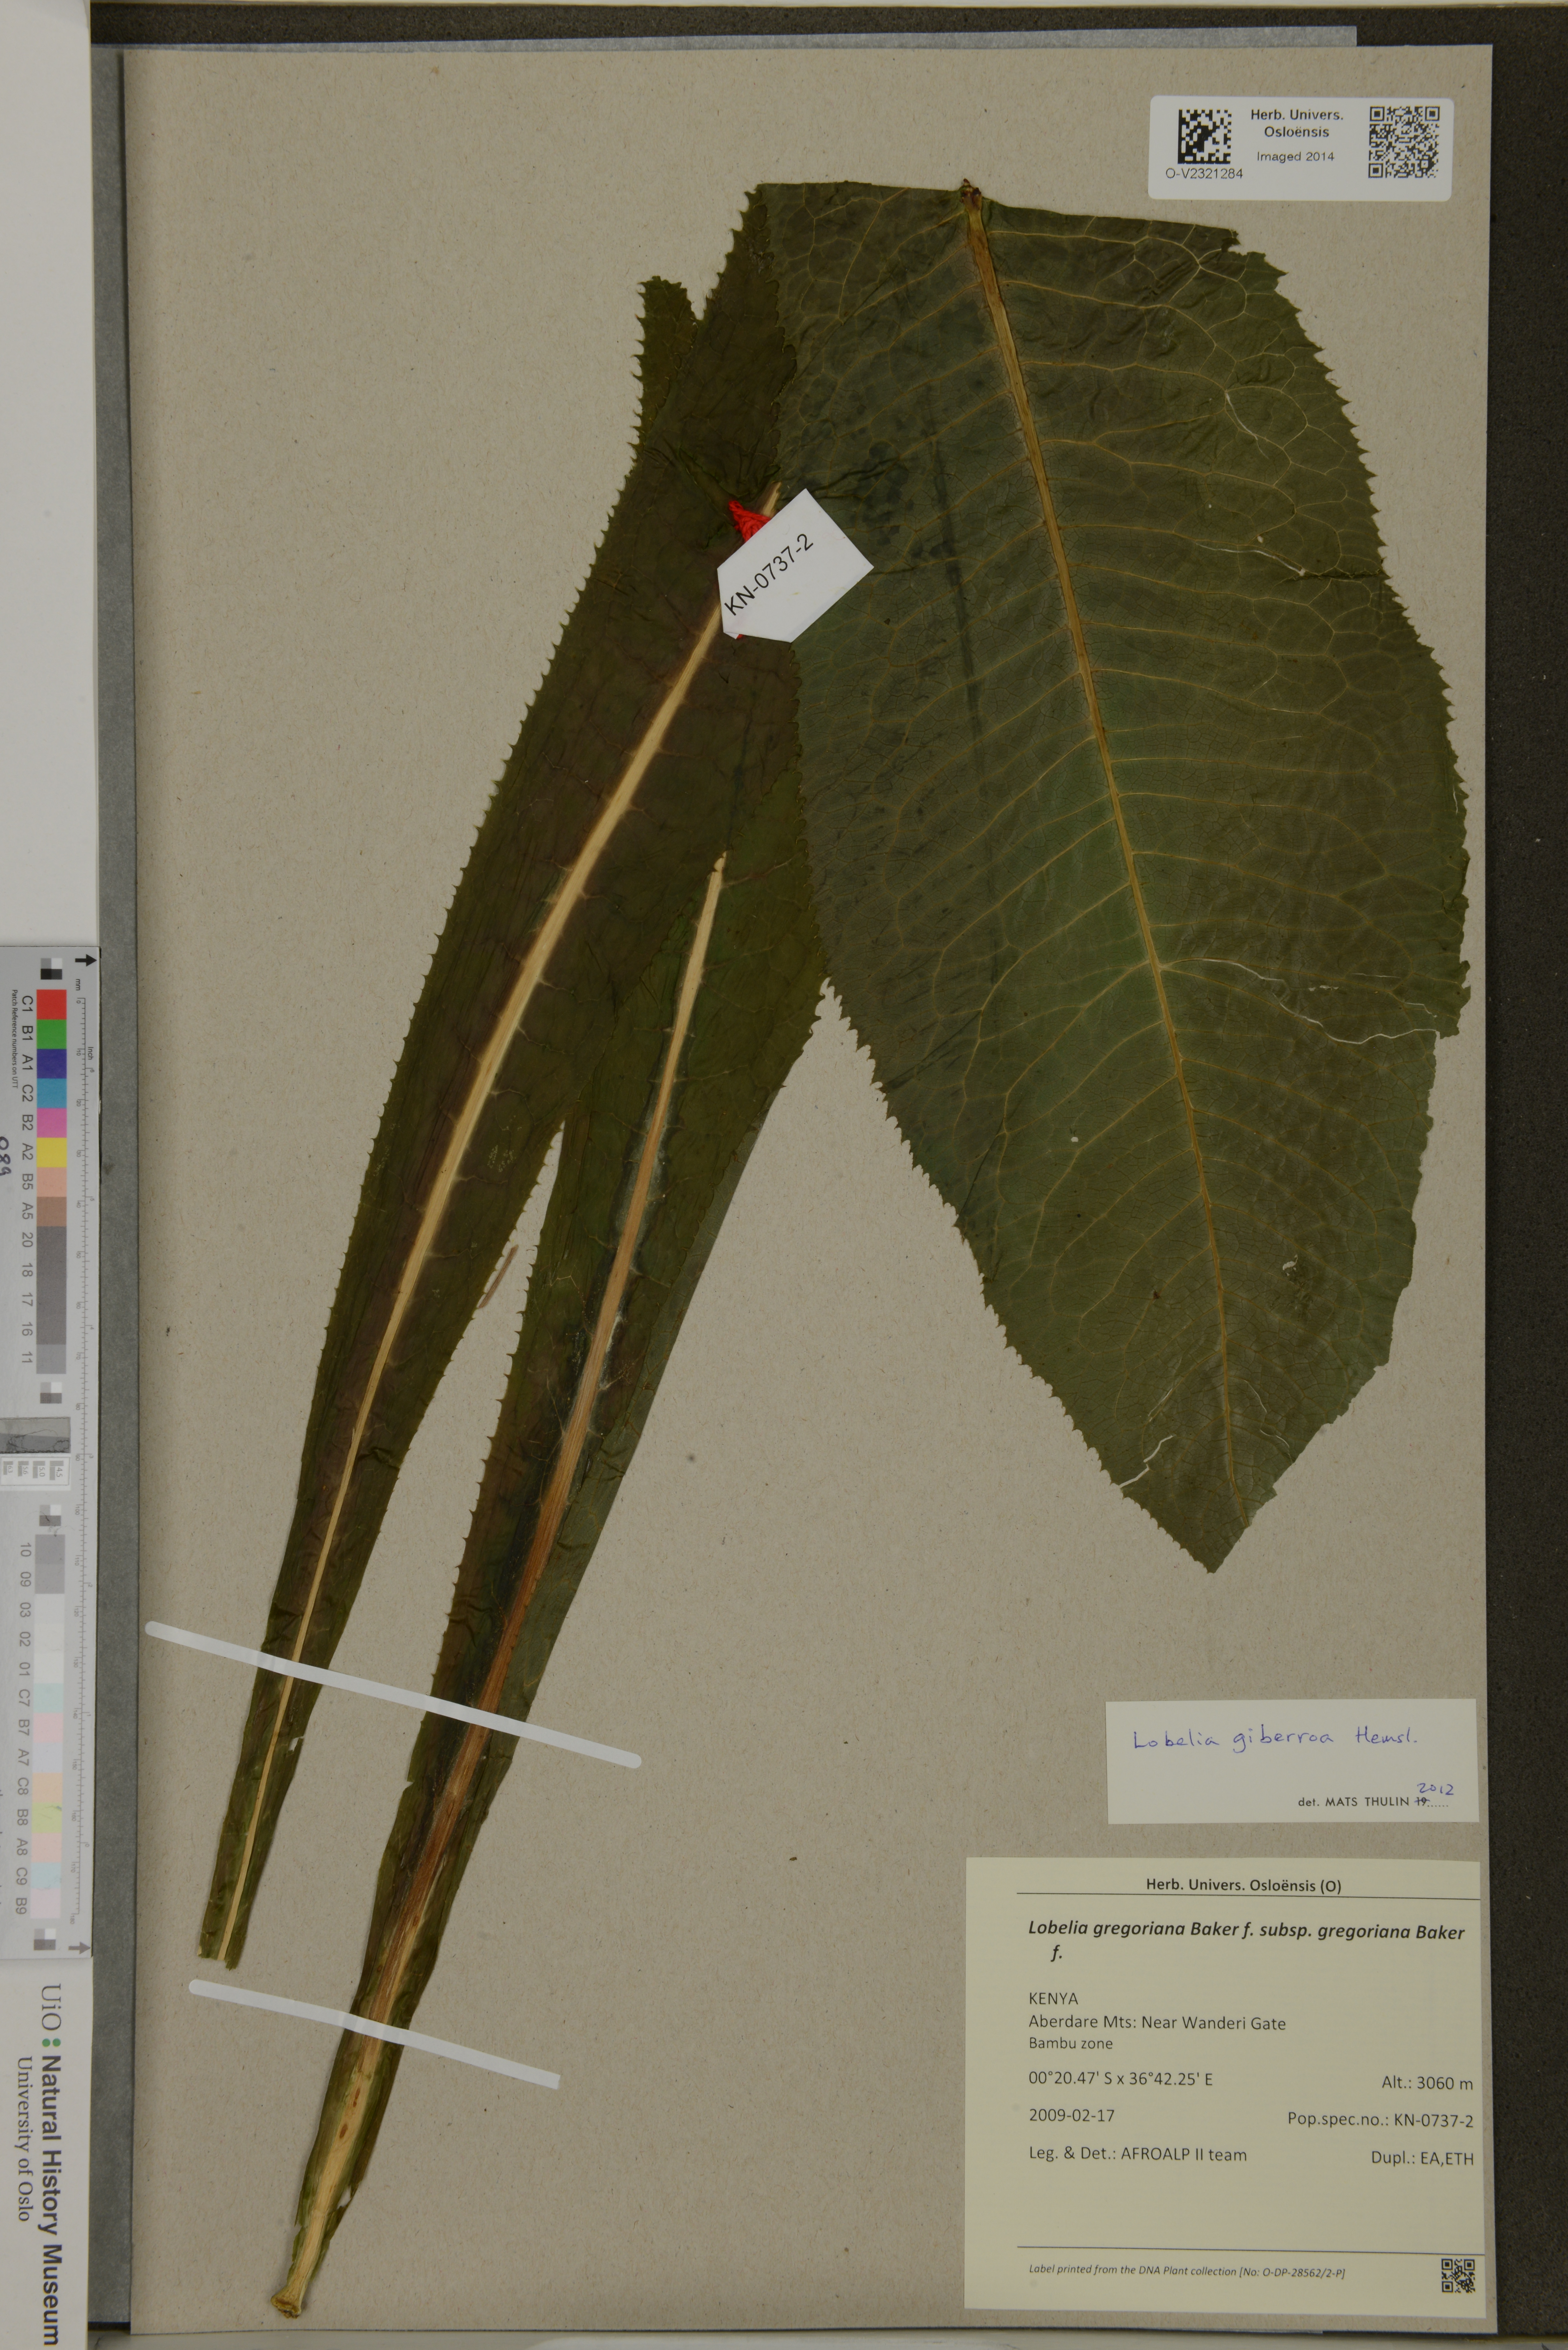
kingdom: Plantae
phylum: Tracheophyta
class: Magnoliopsida
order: Asterales
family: Campanulaceae
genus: Lobelia
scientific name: Lobelia gregoriana
